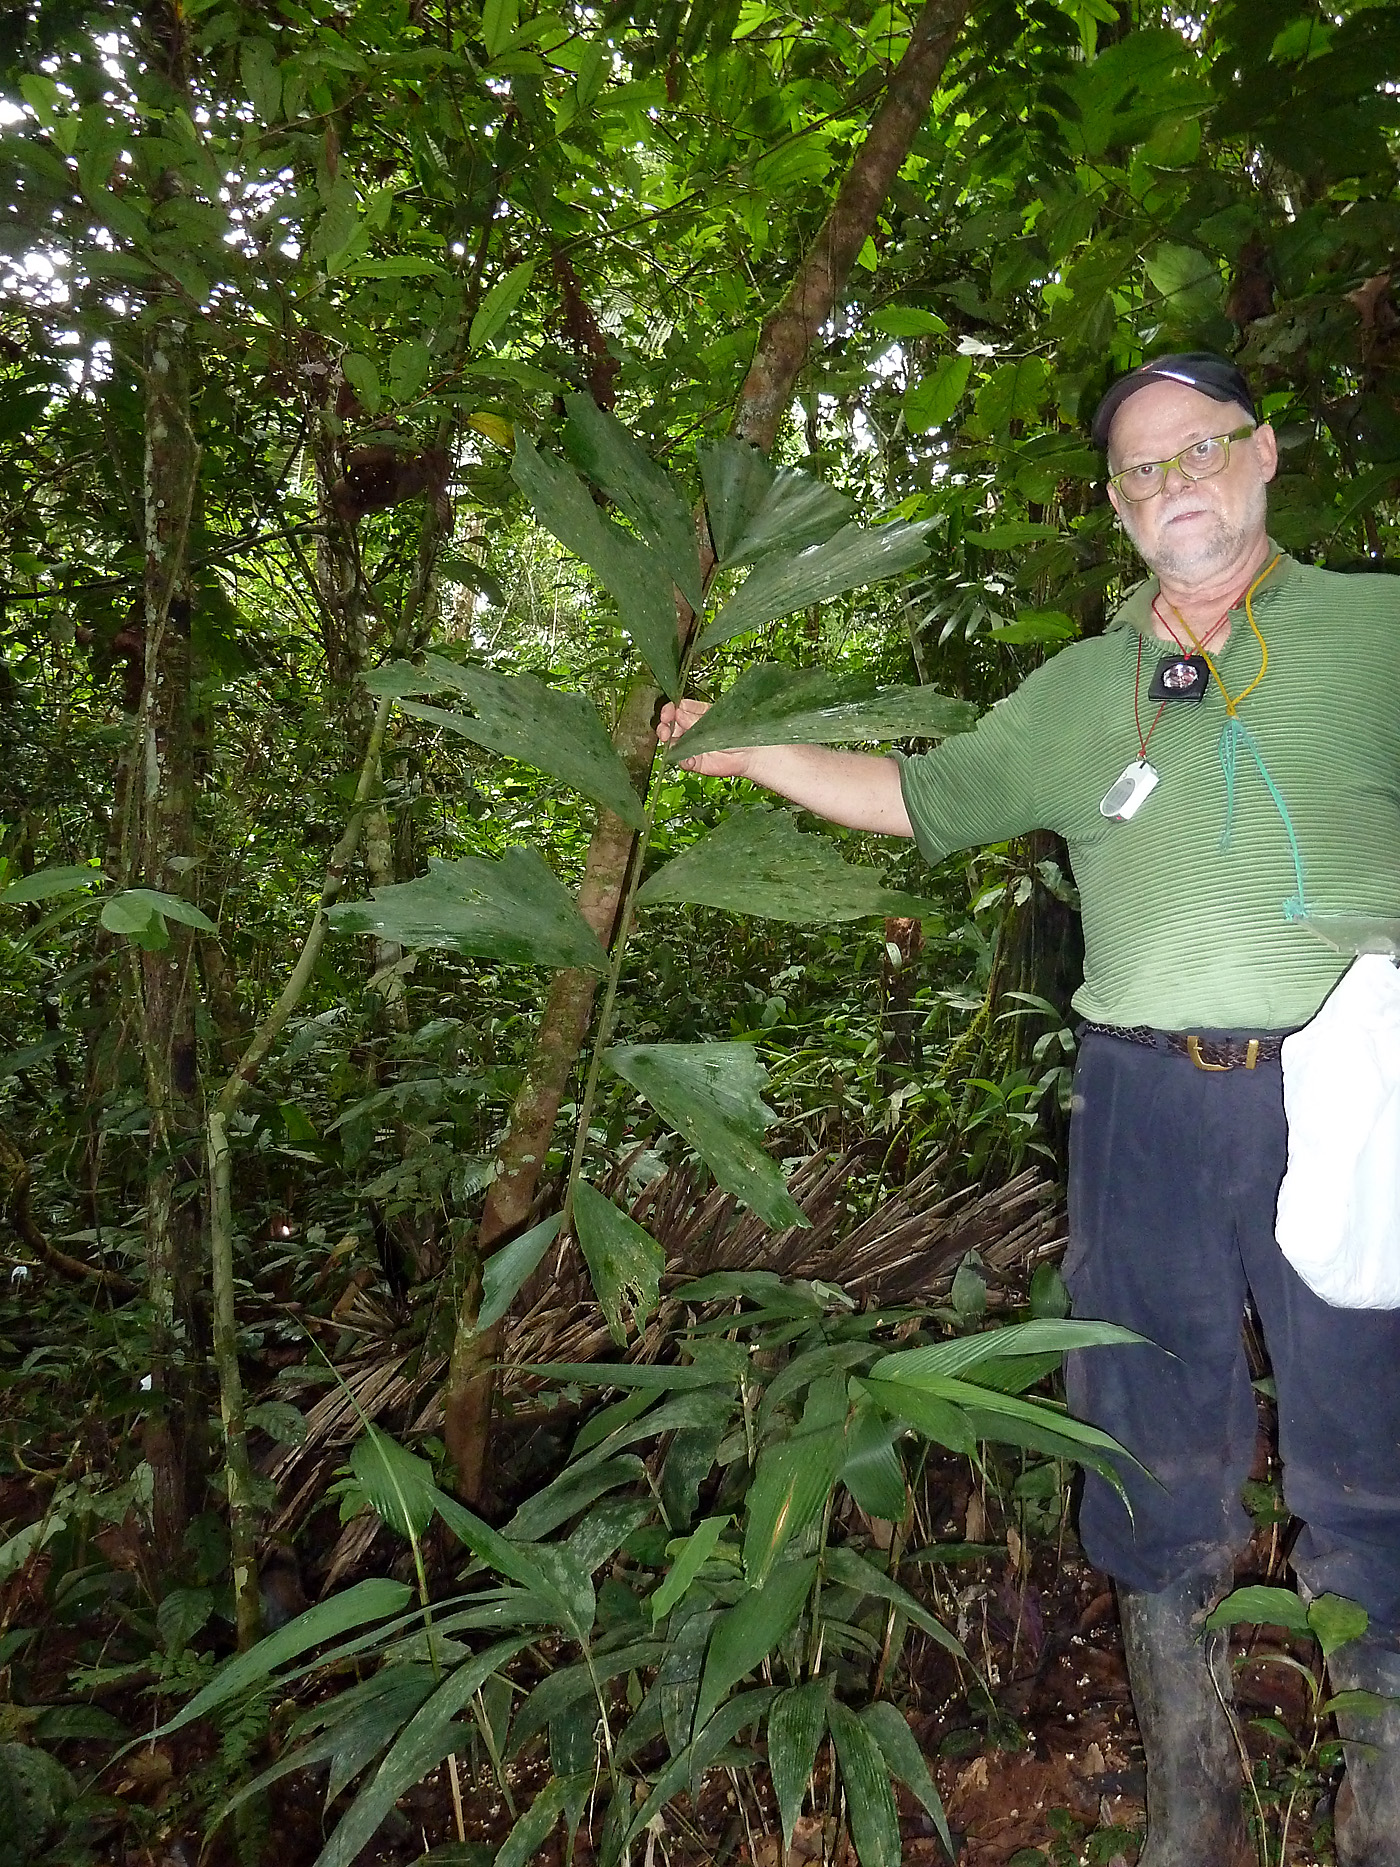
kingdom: Plantae
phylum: Tracheophyta
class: Liliopsida
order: Arecales
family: Arecaceae
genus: Iriartea
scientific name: Iriartea deltoidea
